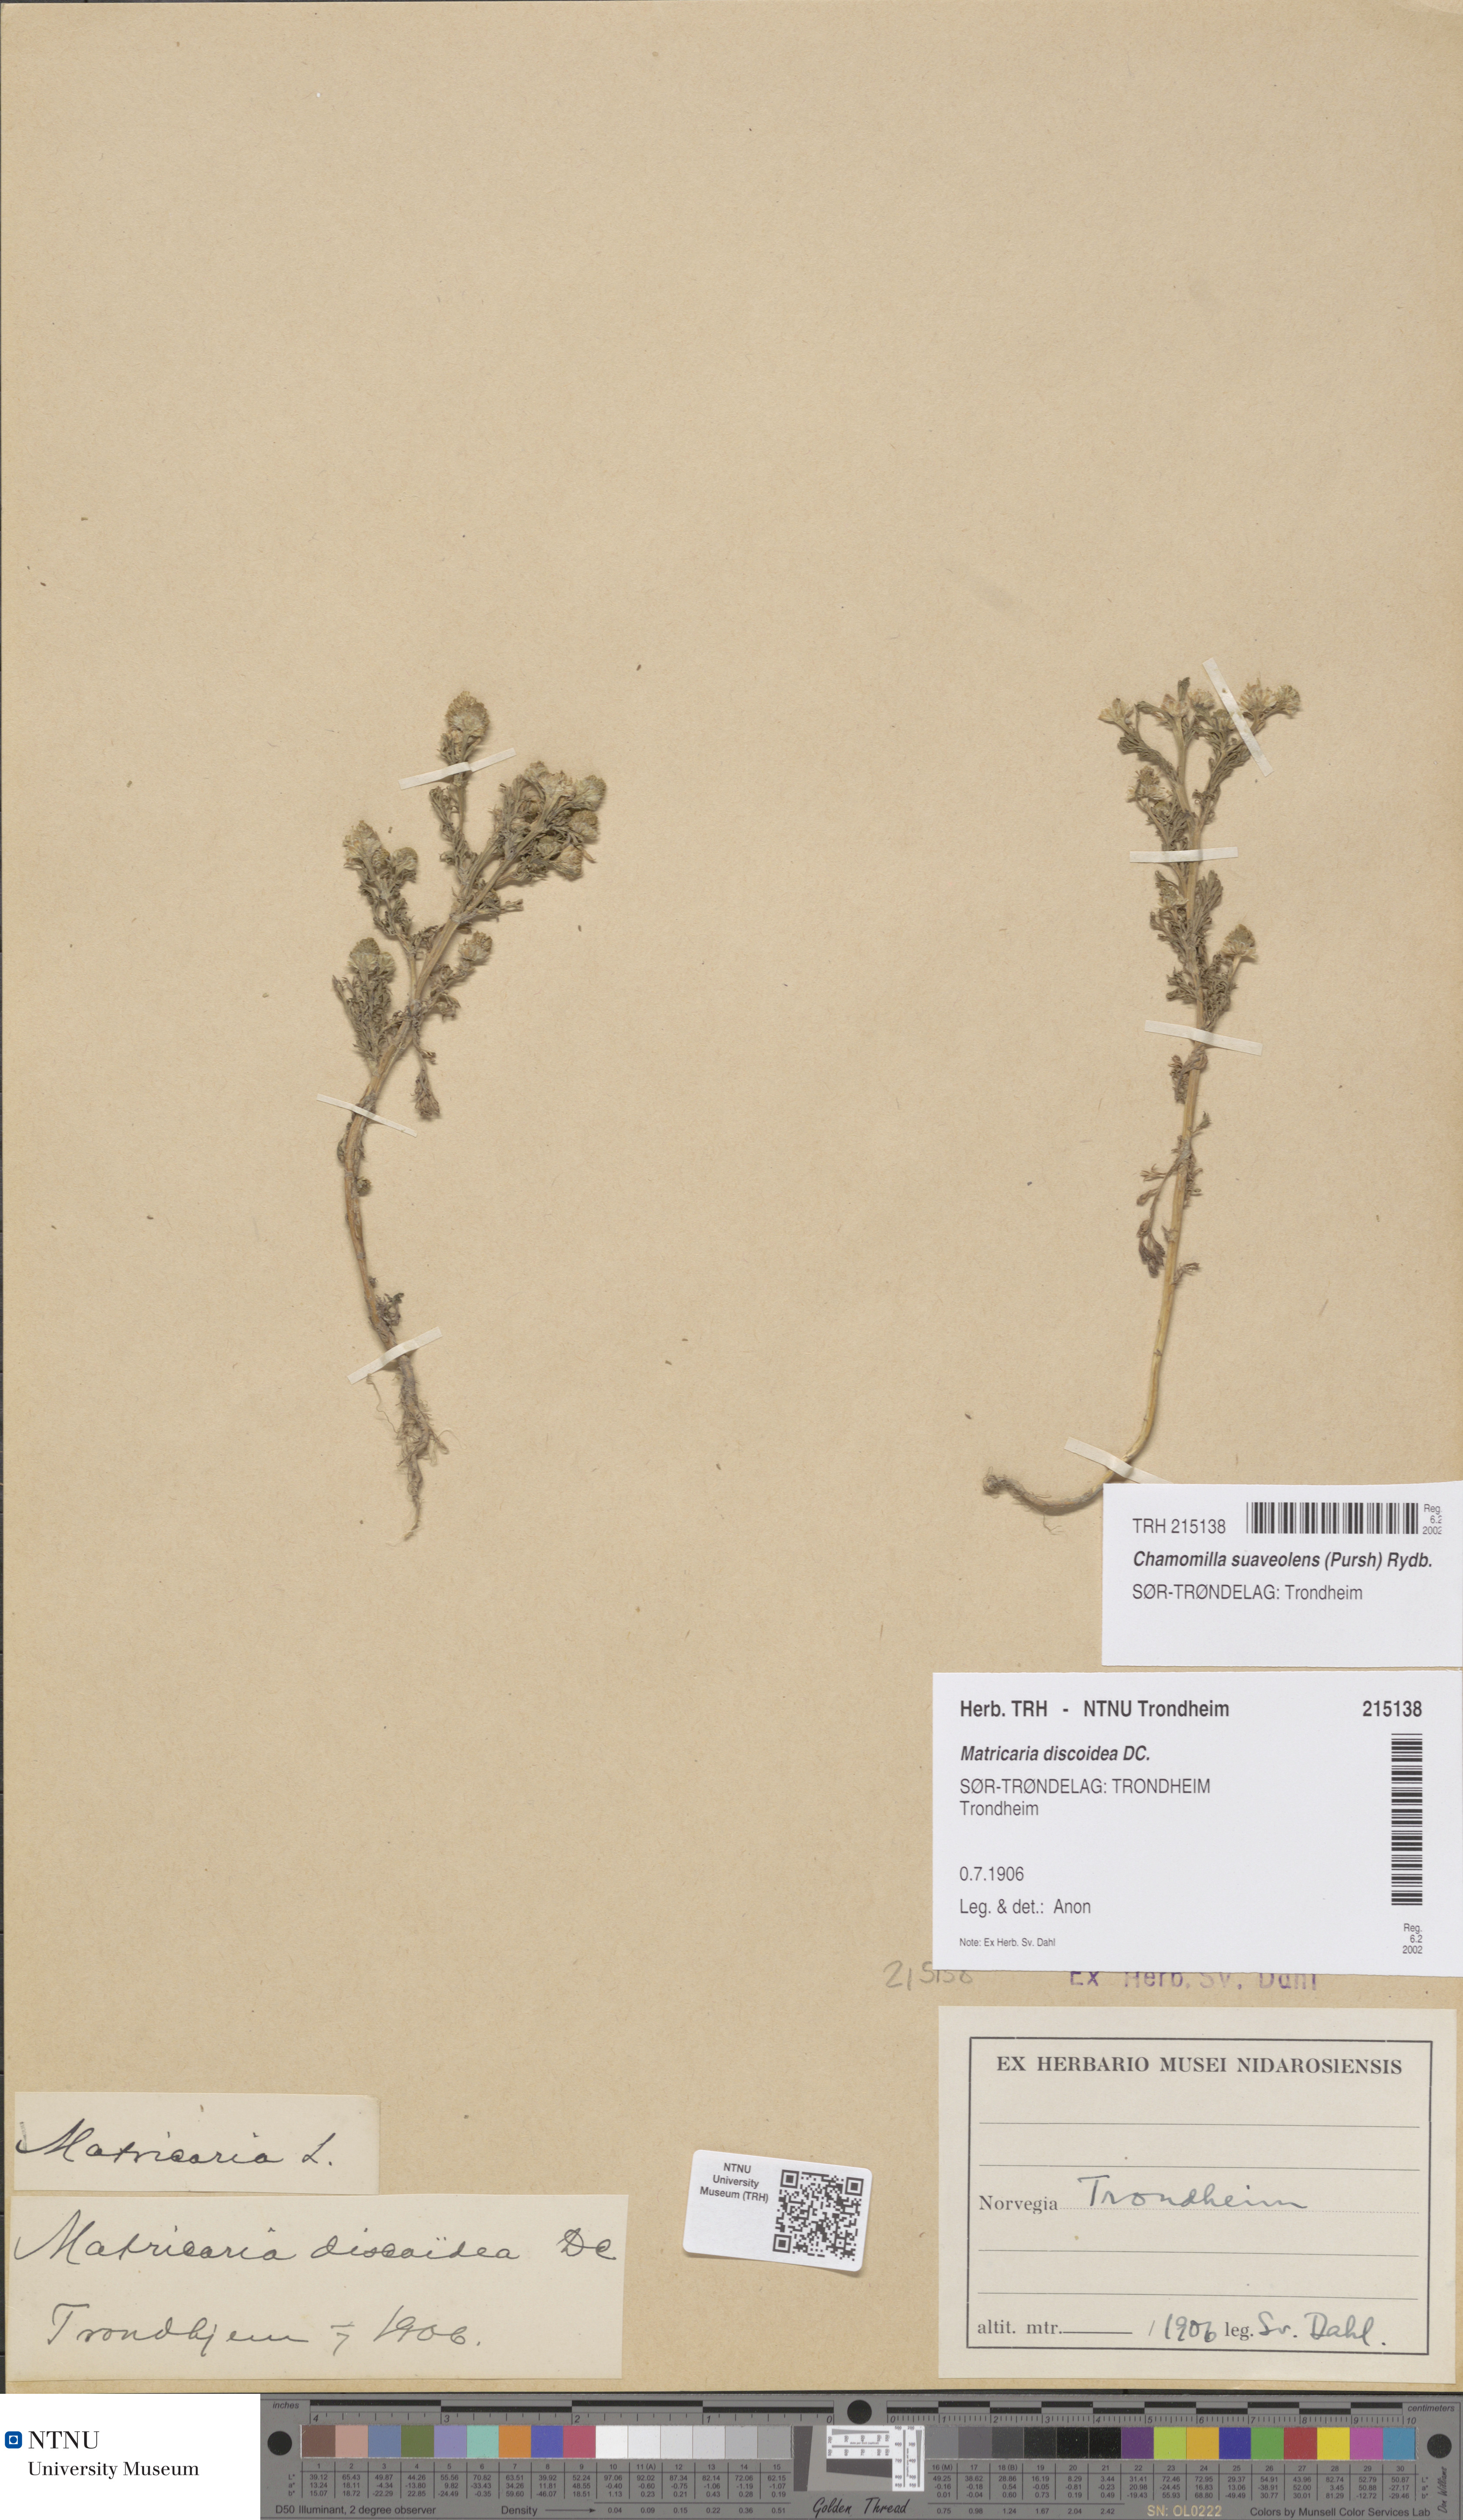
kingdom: Plantae
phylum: Tracheophyta
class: Magnoliopsida
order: Asterales
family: Asteraceae
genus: Matricaria
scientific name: Matricaria discoidea
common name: Disc mayweed
